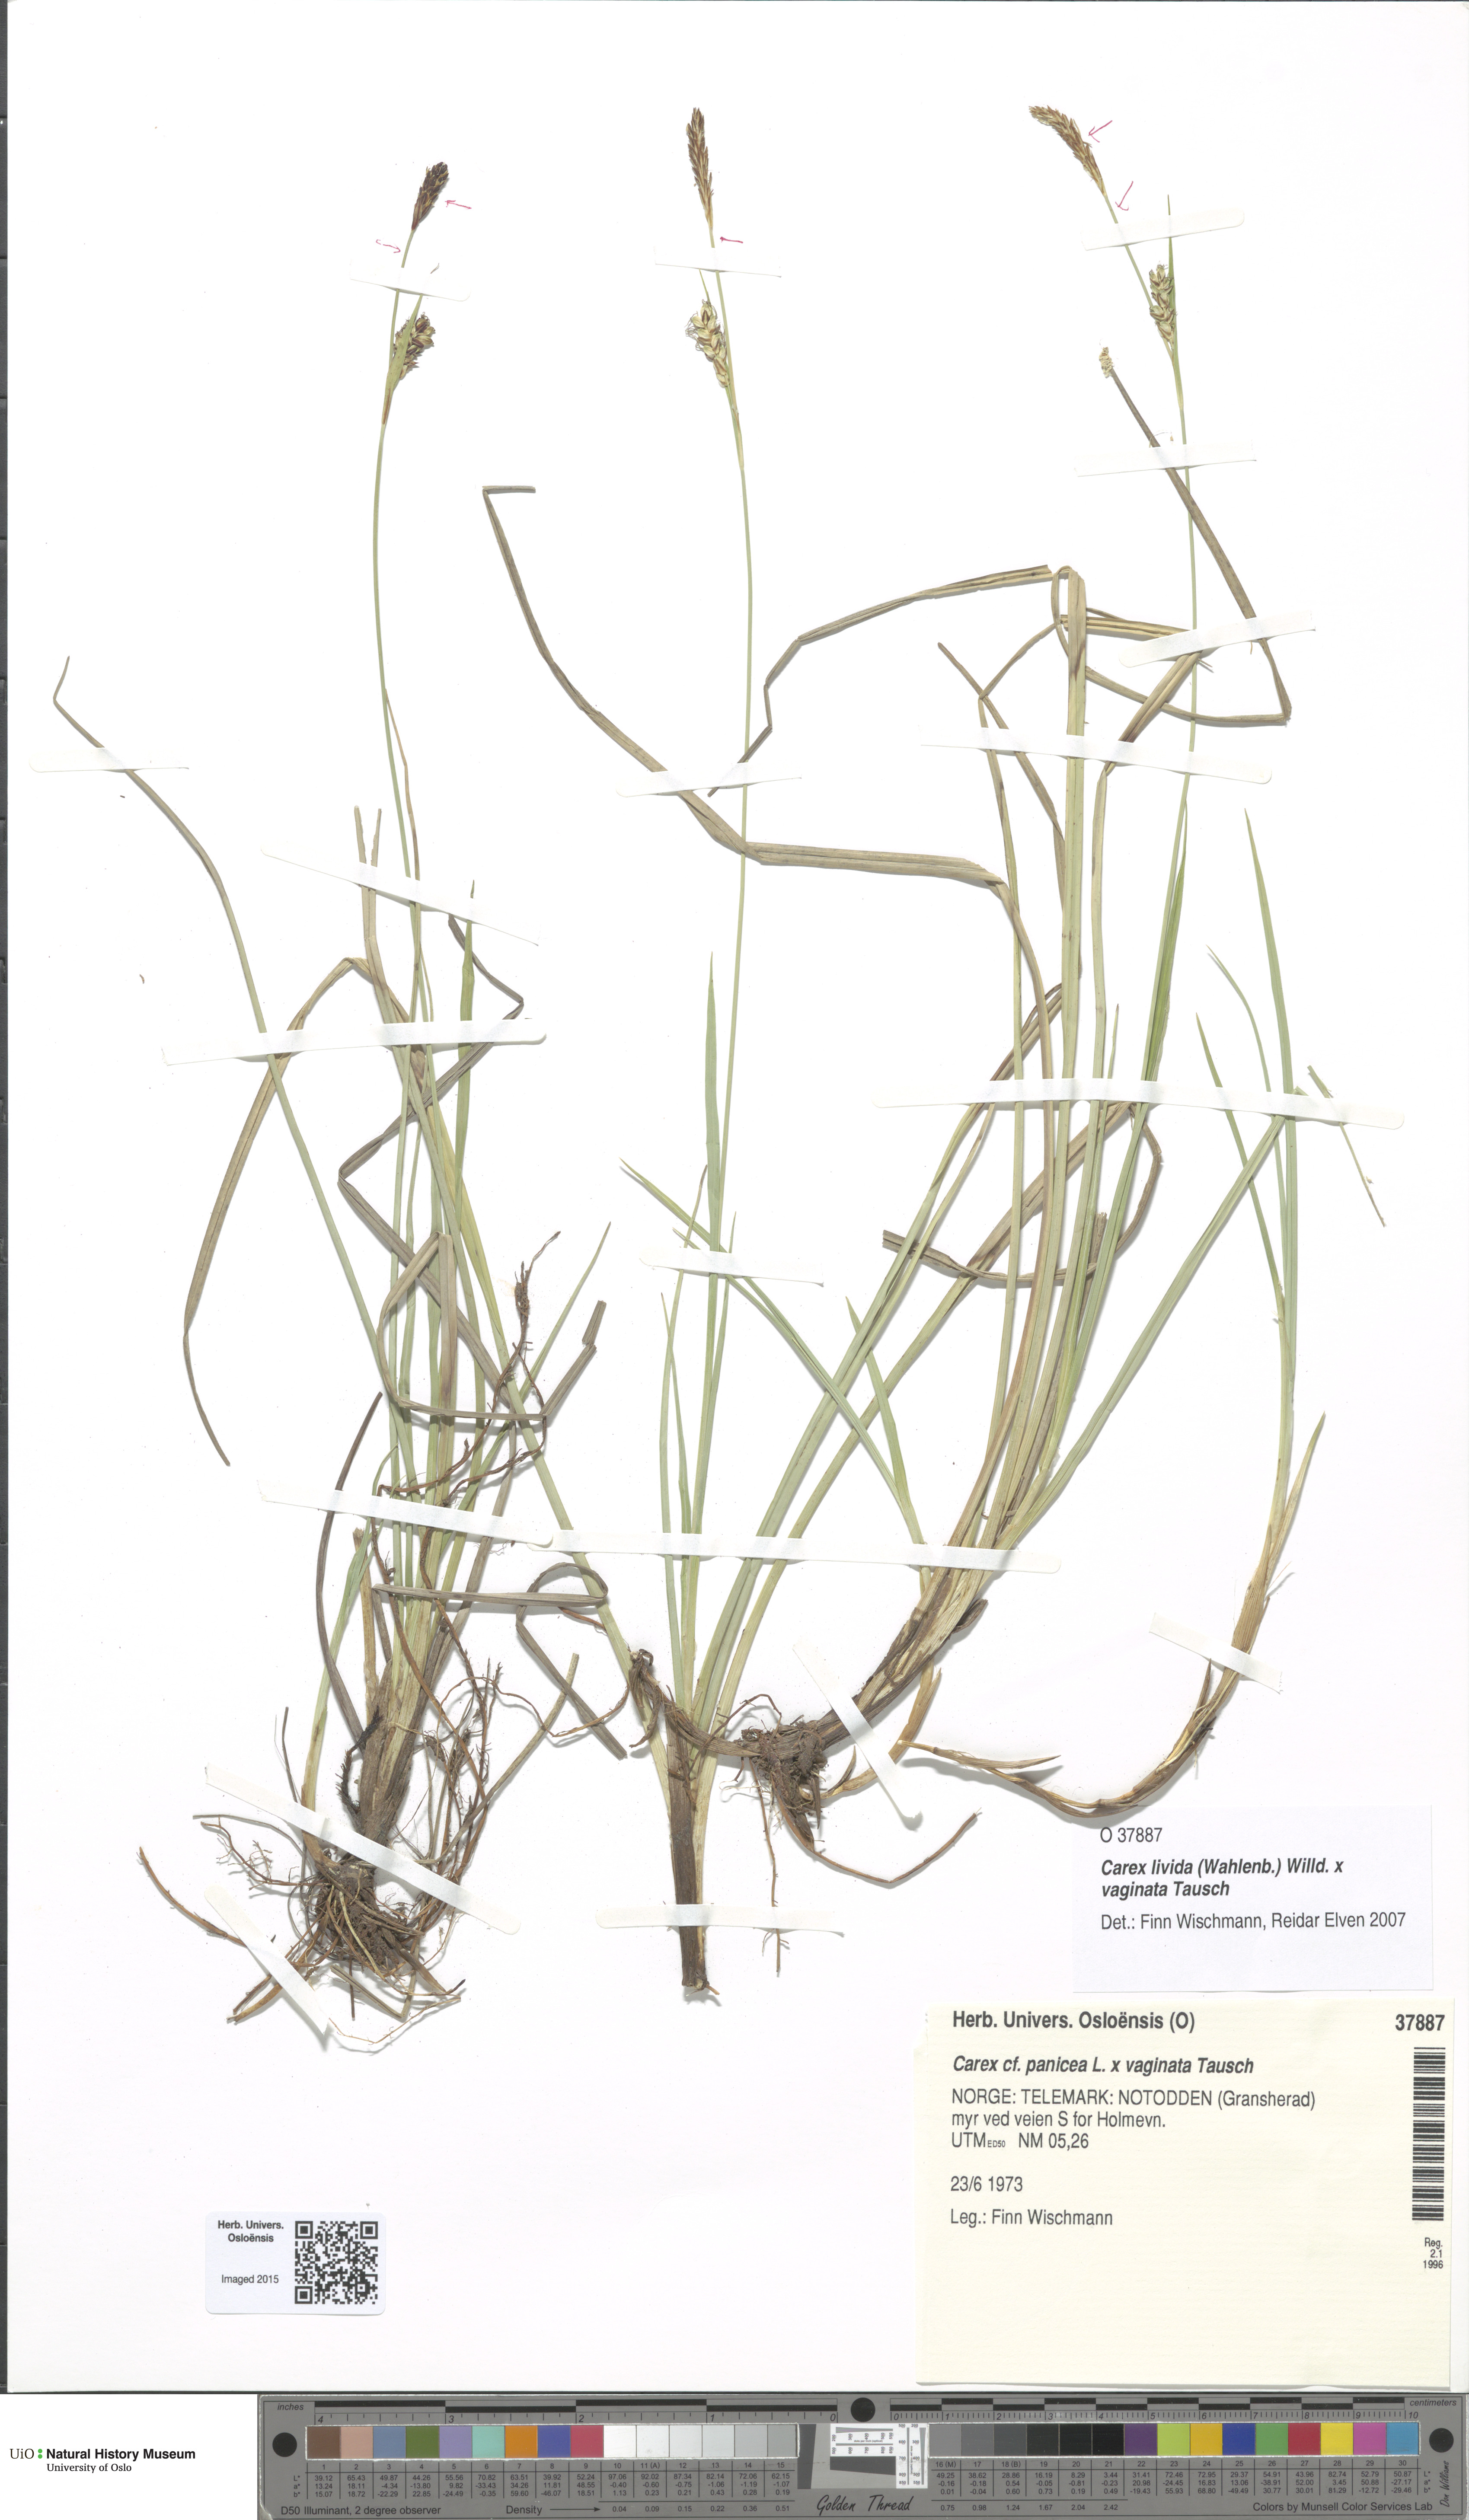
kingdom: Plantae
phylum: Tracheophyta
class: Liliopsida
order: Poales
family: Cyperaceae
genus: Carex
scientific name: Carex
